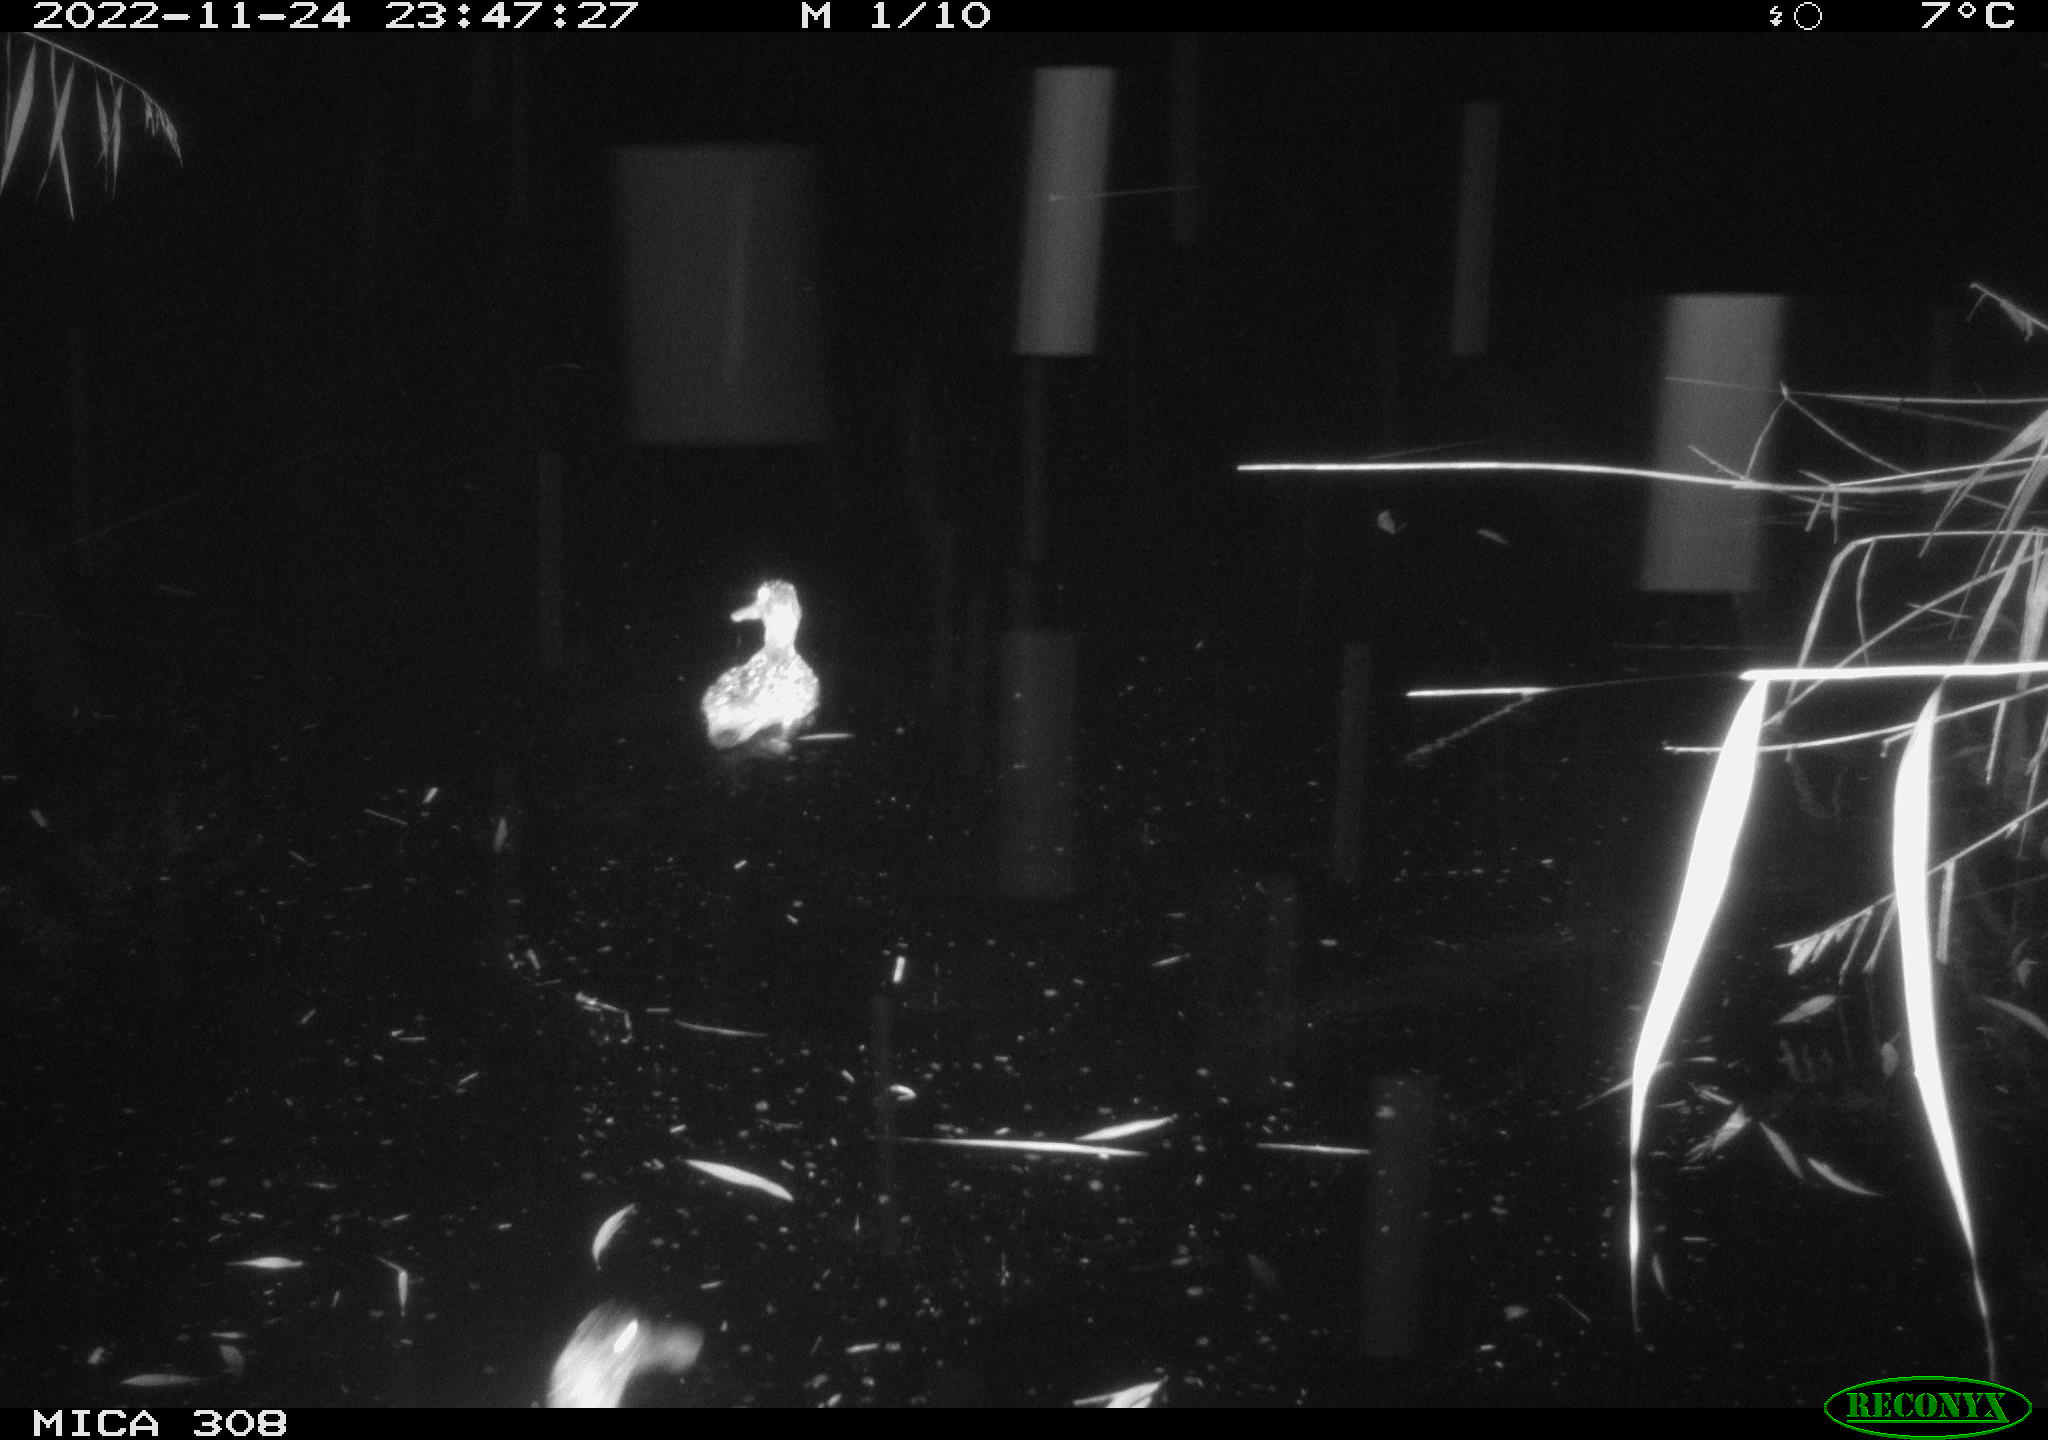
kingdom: Animalia
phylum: Chordata
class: Aves
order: Anseriformes
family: Anatidae
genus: Anas
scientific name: Anas
